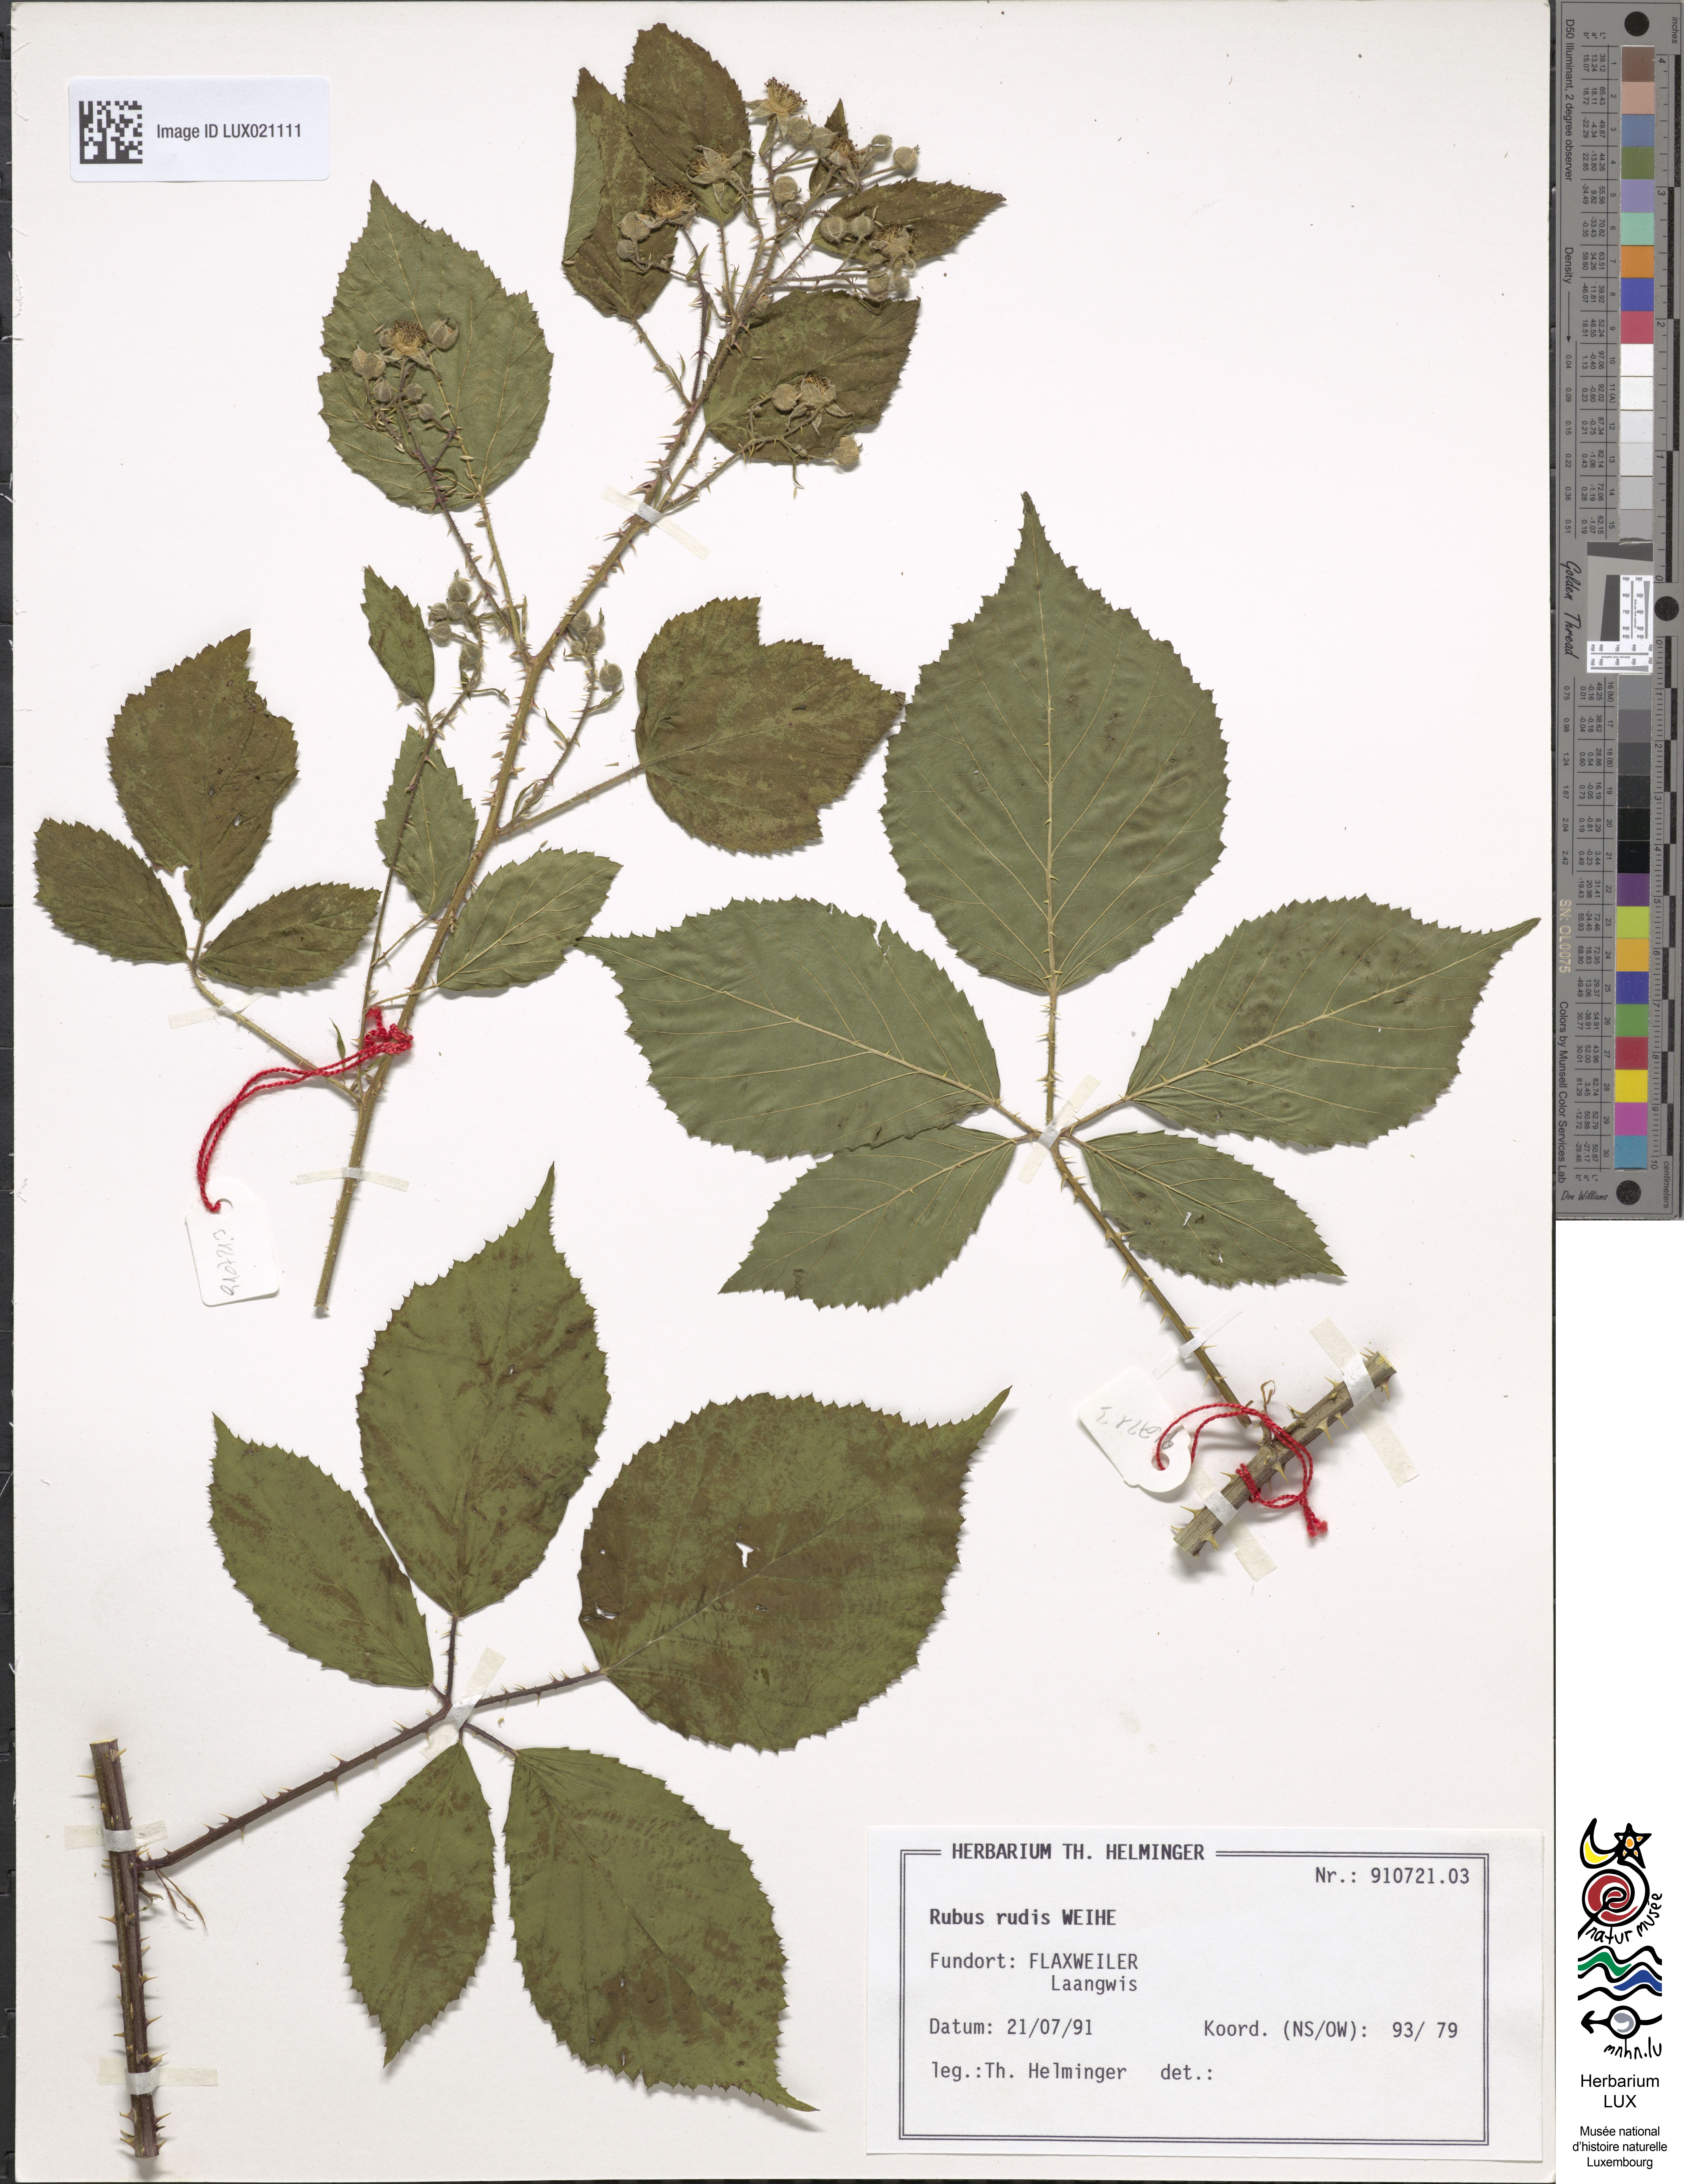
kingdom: Plantae
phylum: Tracheophyta
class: Magnoliopsida
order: Rosales
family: Rosaceae
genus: Rubus
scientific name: Rubus rudis
